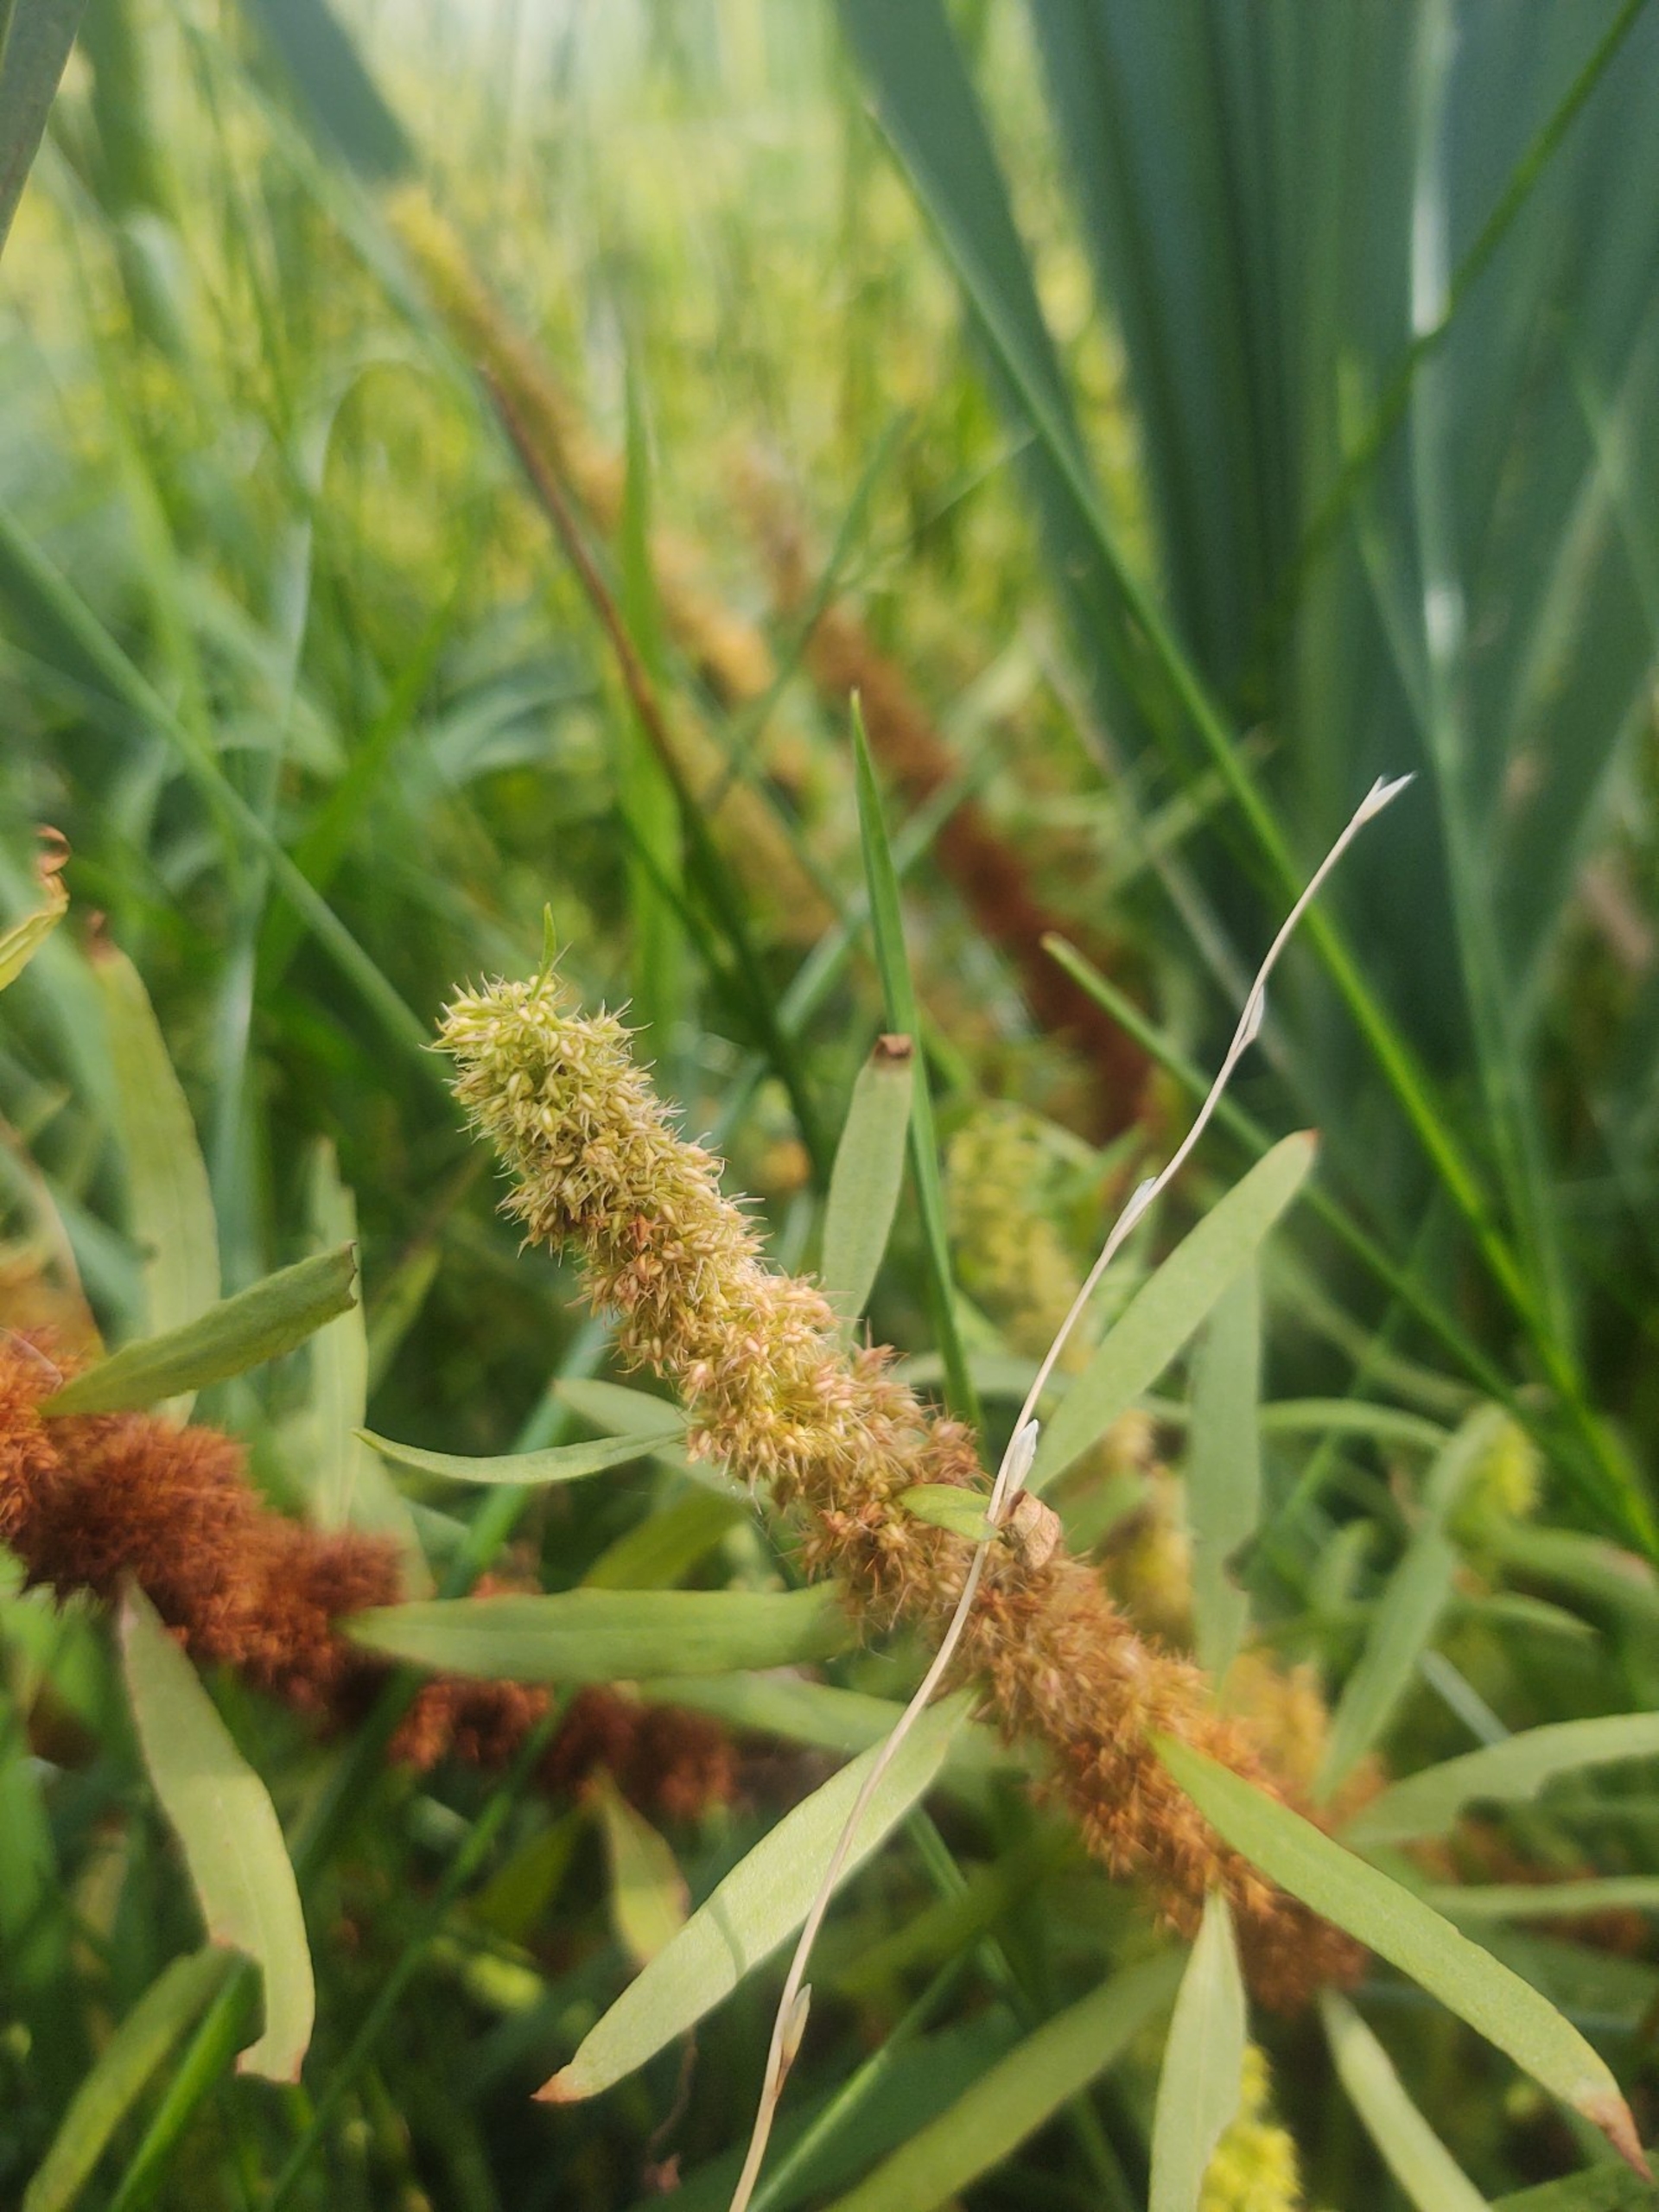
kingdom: Plantae
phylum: Tracheophyta
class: Magnoliopsida
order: Caryophyllales
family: Polygonaceae
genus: Rumex
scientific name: Rumex maritimus
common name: Strand-skræppe
